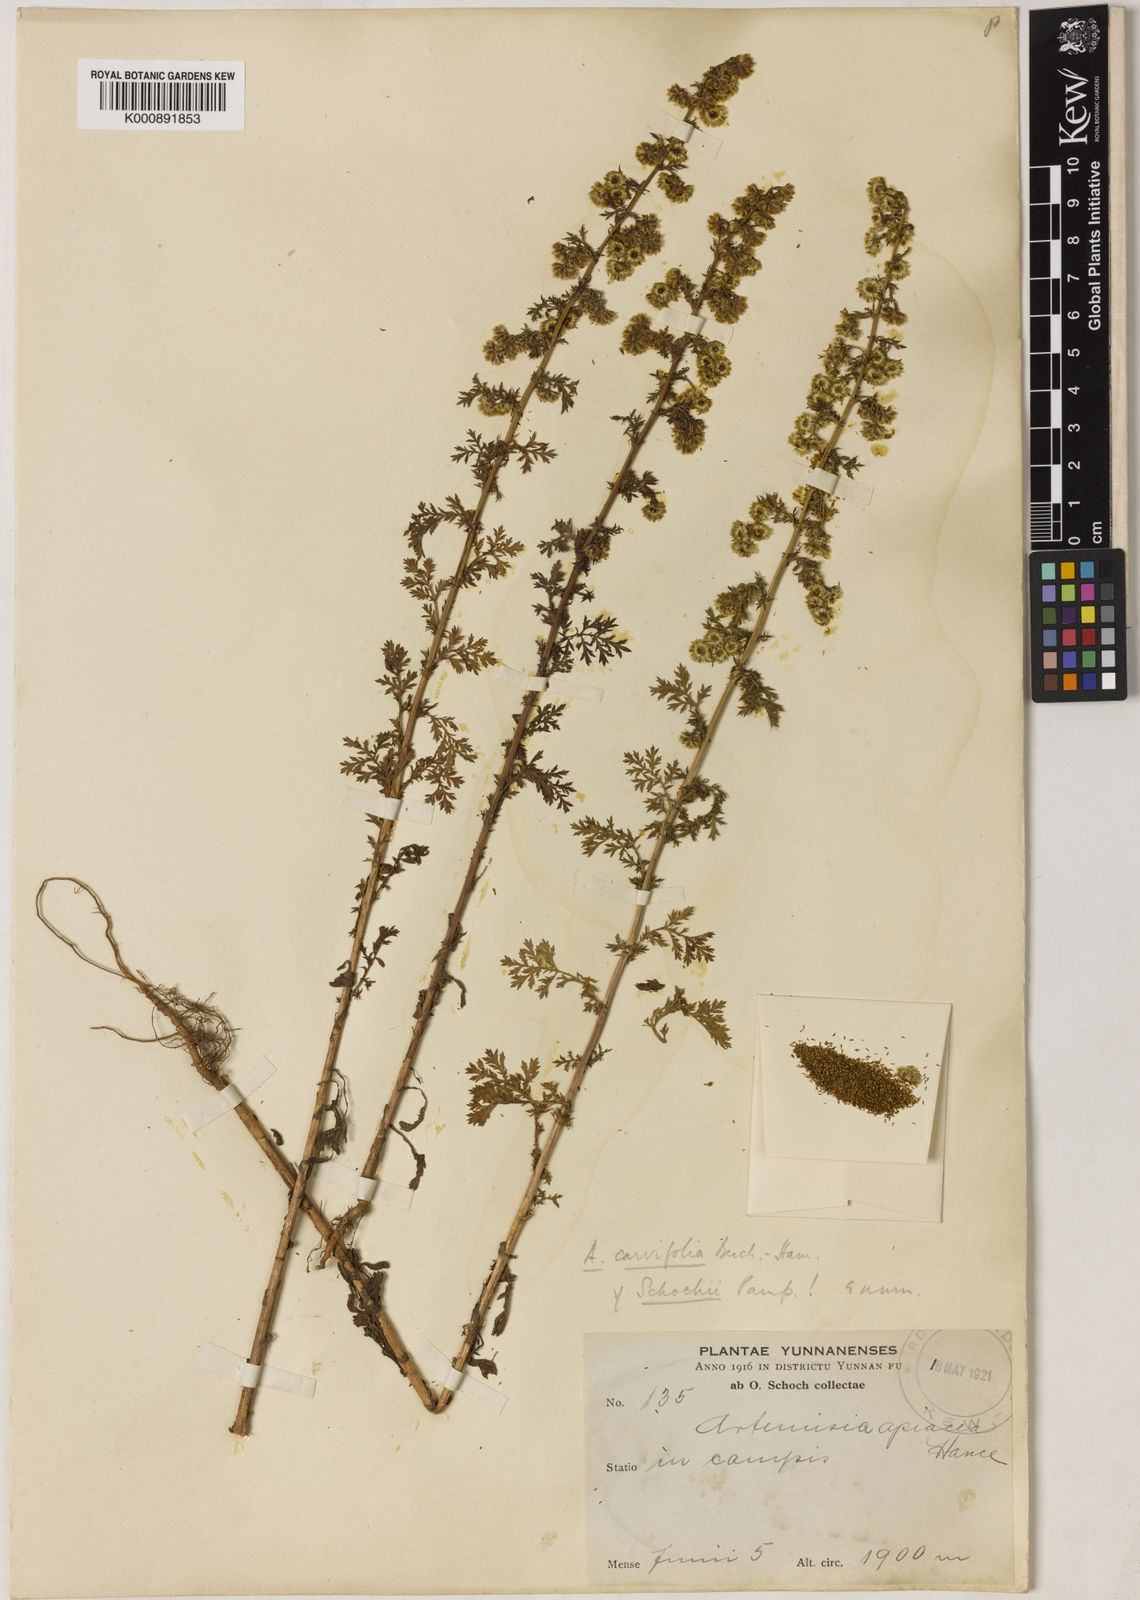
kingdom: Plantae
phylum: Tracheophyta
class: Magnoliopsida
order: Asterales
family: Asteraceae
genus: Artemisia
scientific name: Artemisia caruifolia
